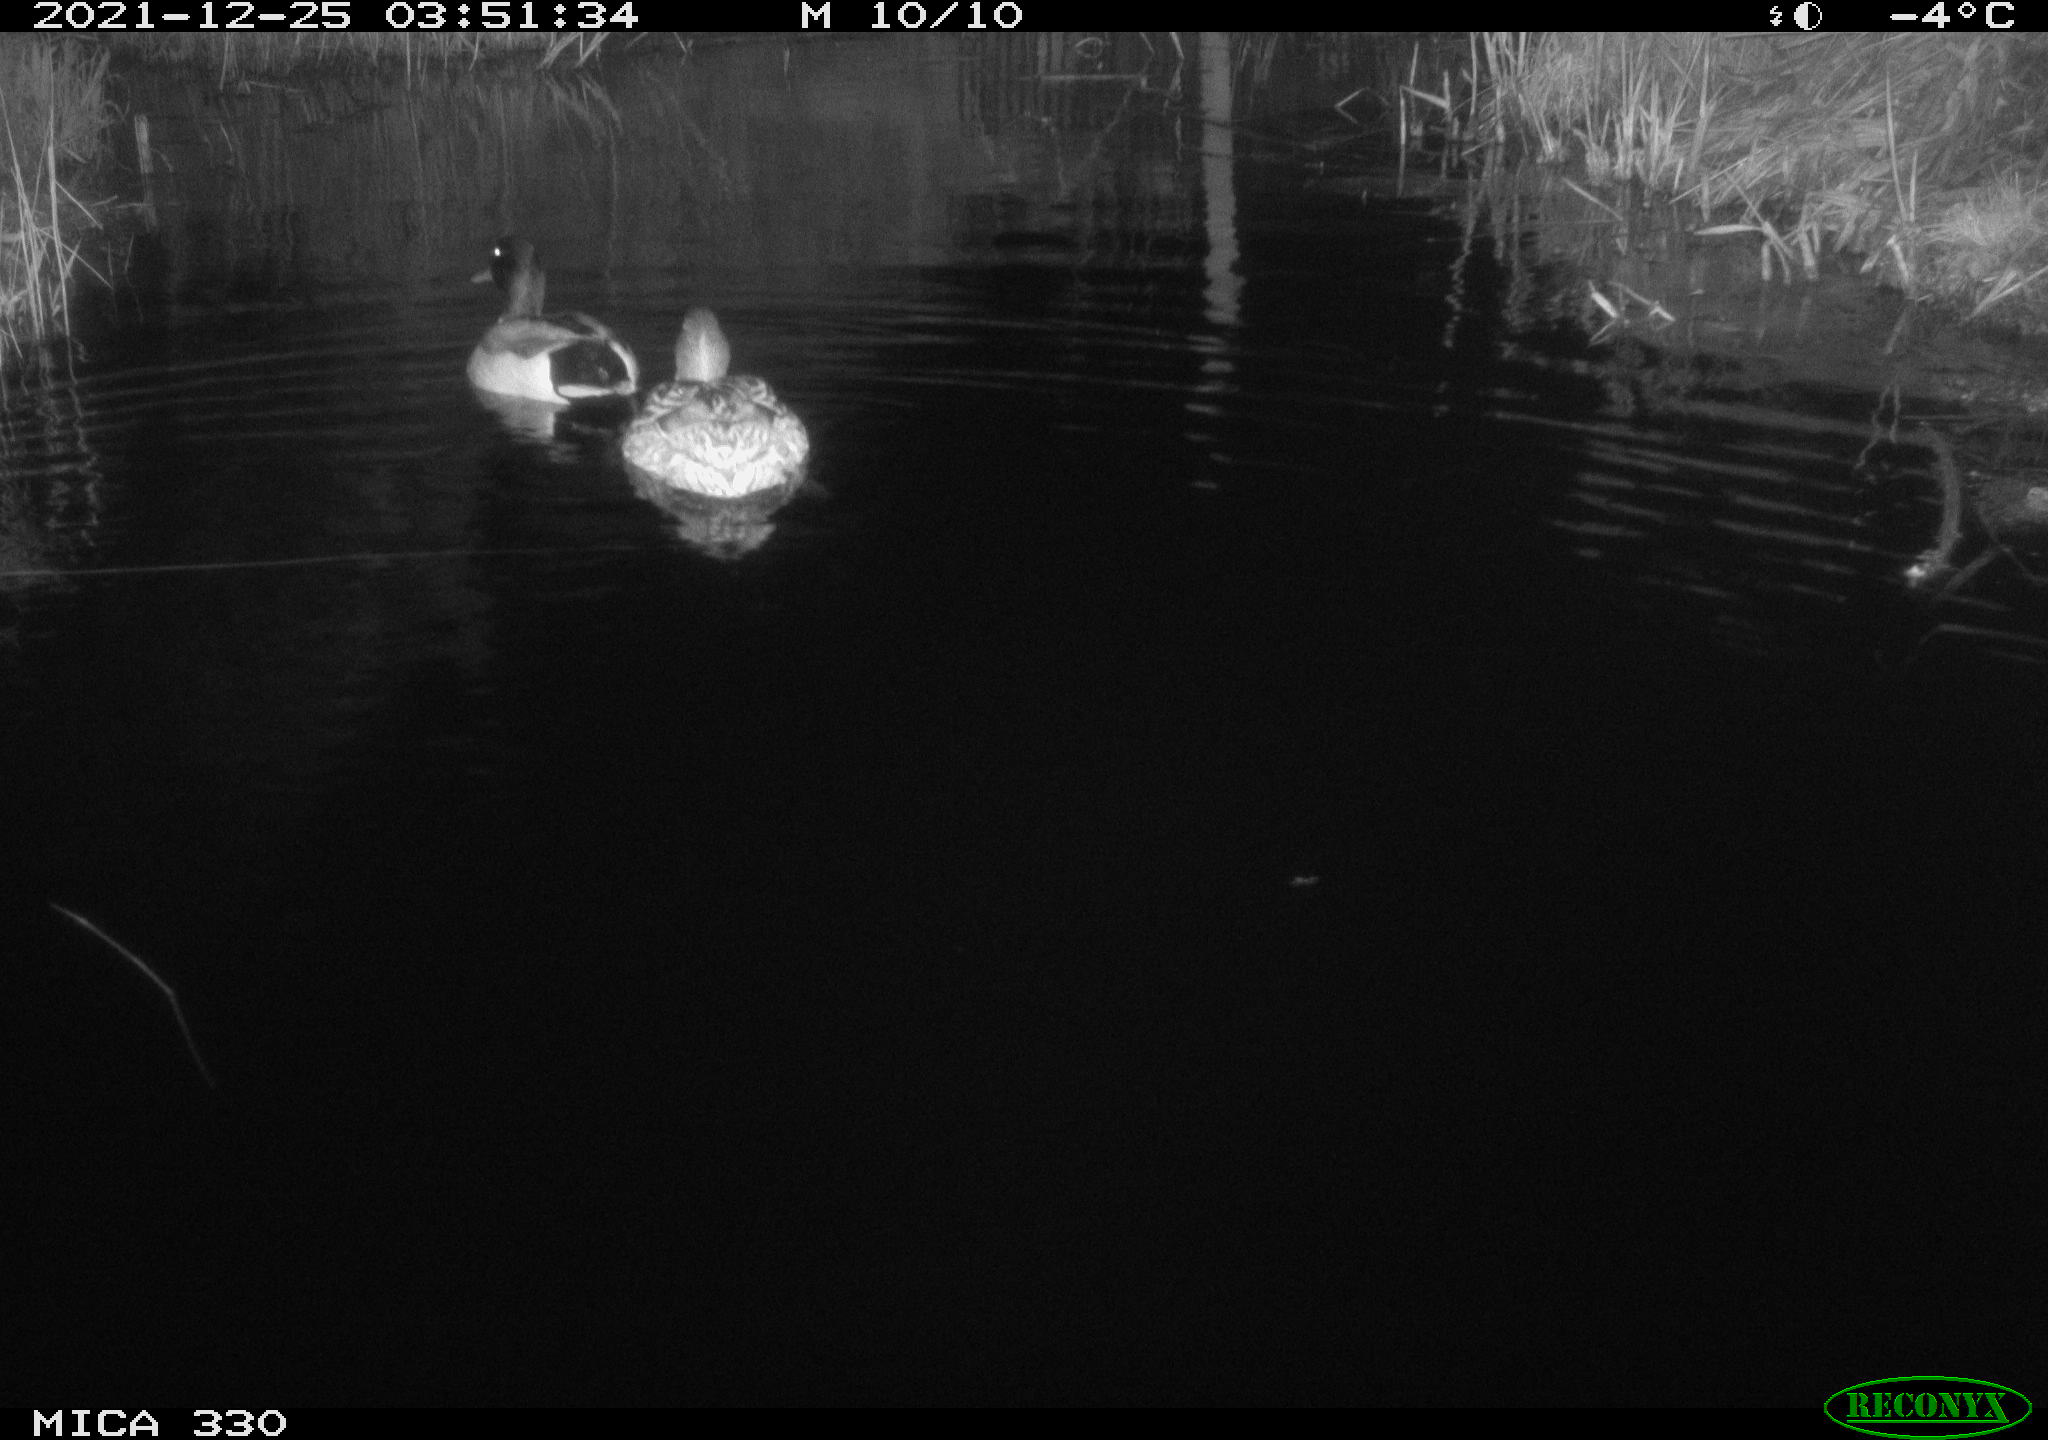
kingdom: Animalia
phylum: Chordata
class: Aves
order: Anseriformes
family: Anatidae
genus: Anas
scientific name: Anas platyrhynchos
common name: Mallard
